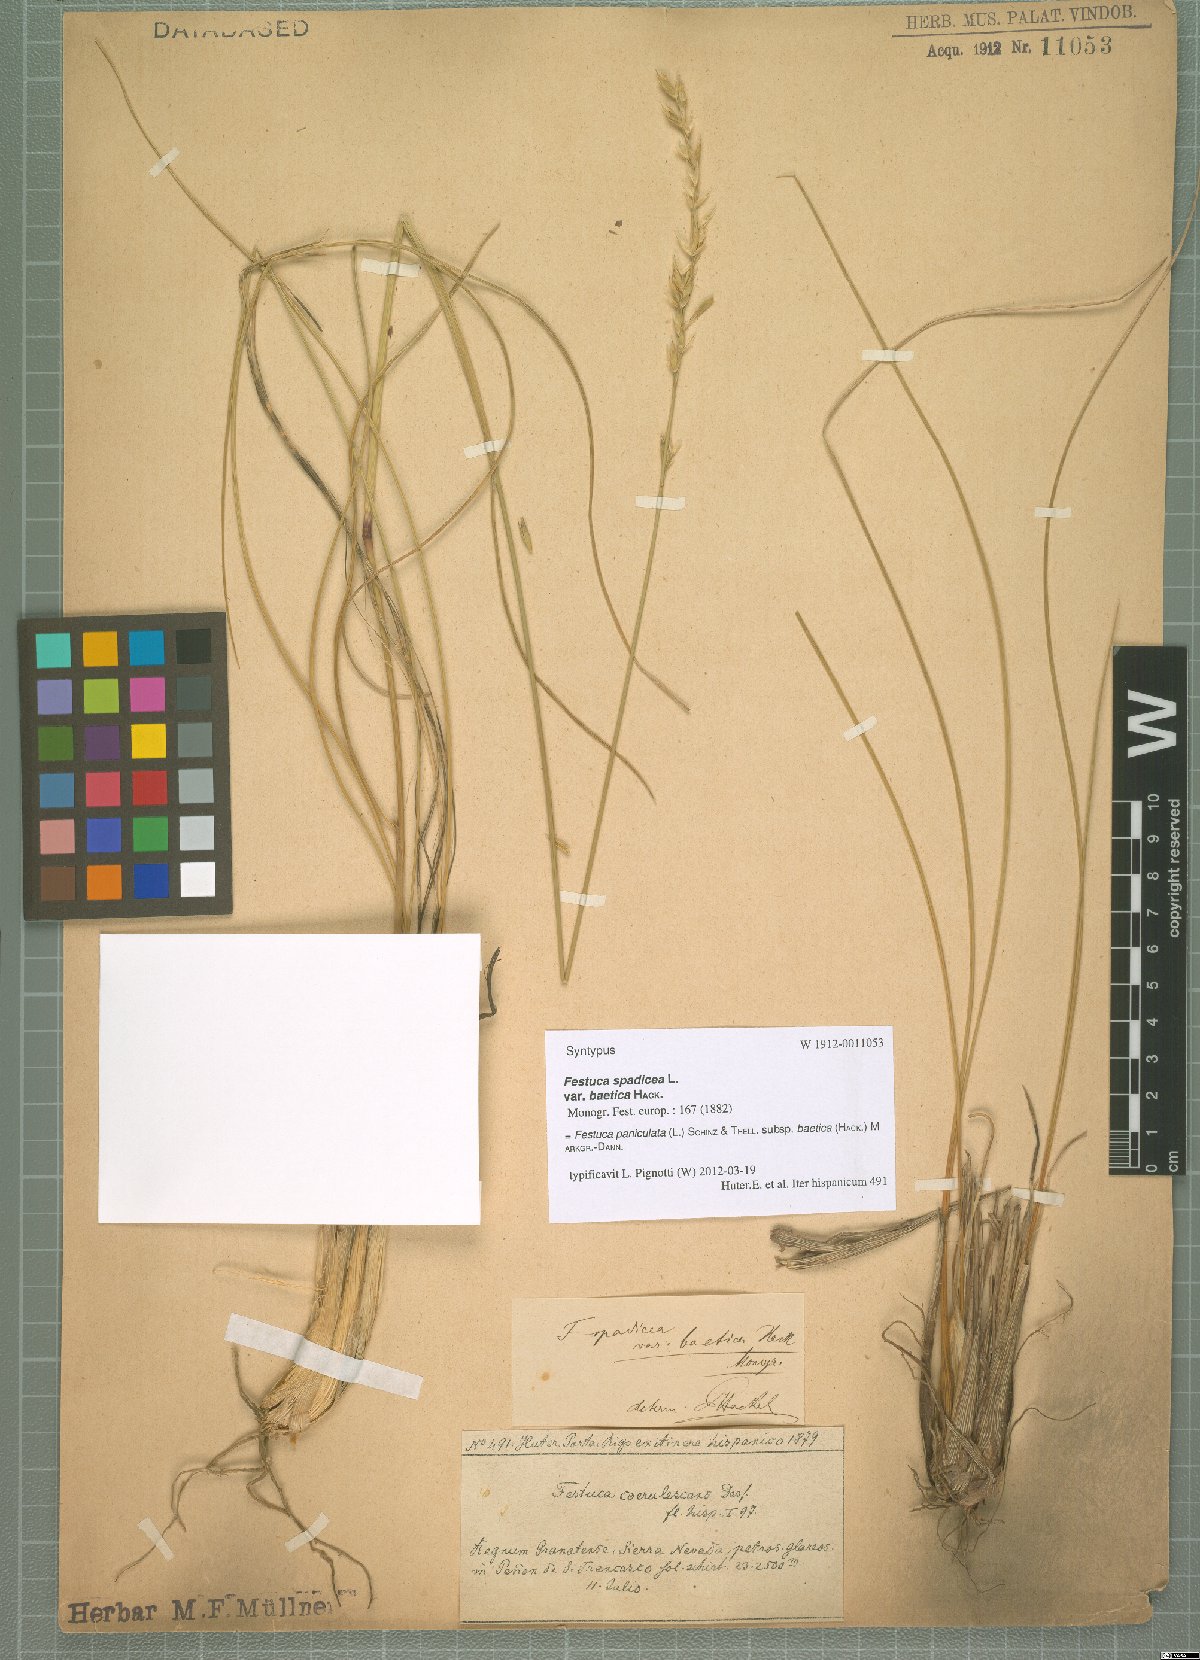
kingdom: Plantae
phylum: Tracheophyta
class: Liliopsida
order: Poales
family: Poaceae
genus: Patzkea
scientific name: Patzkea paniculata
